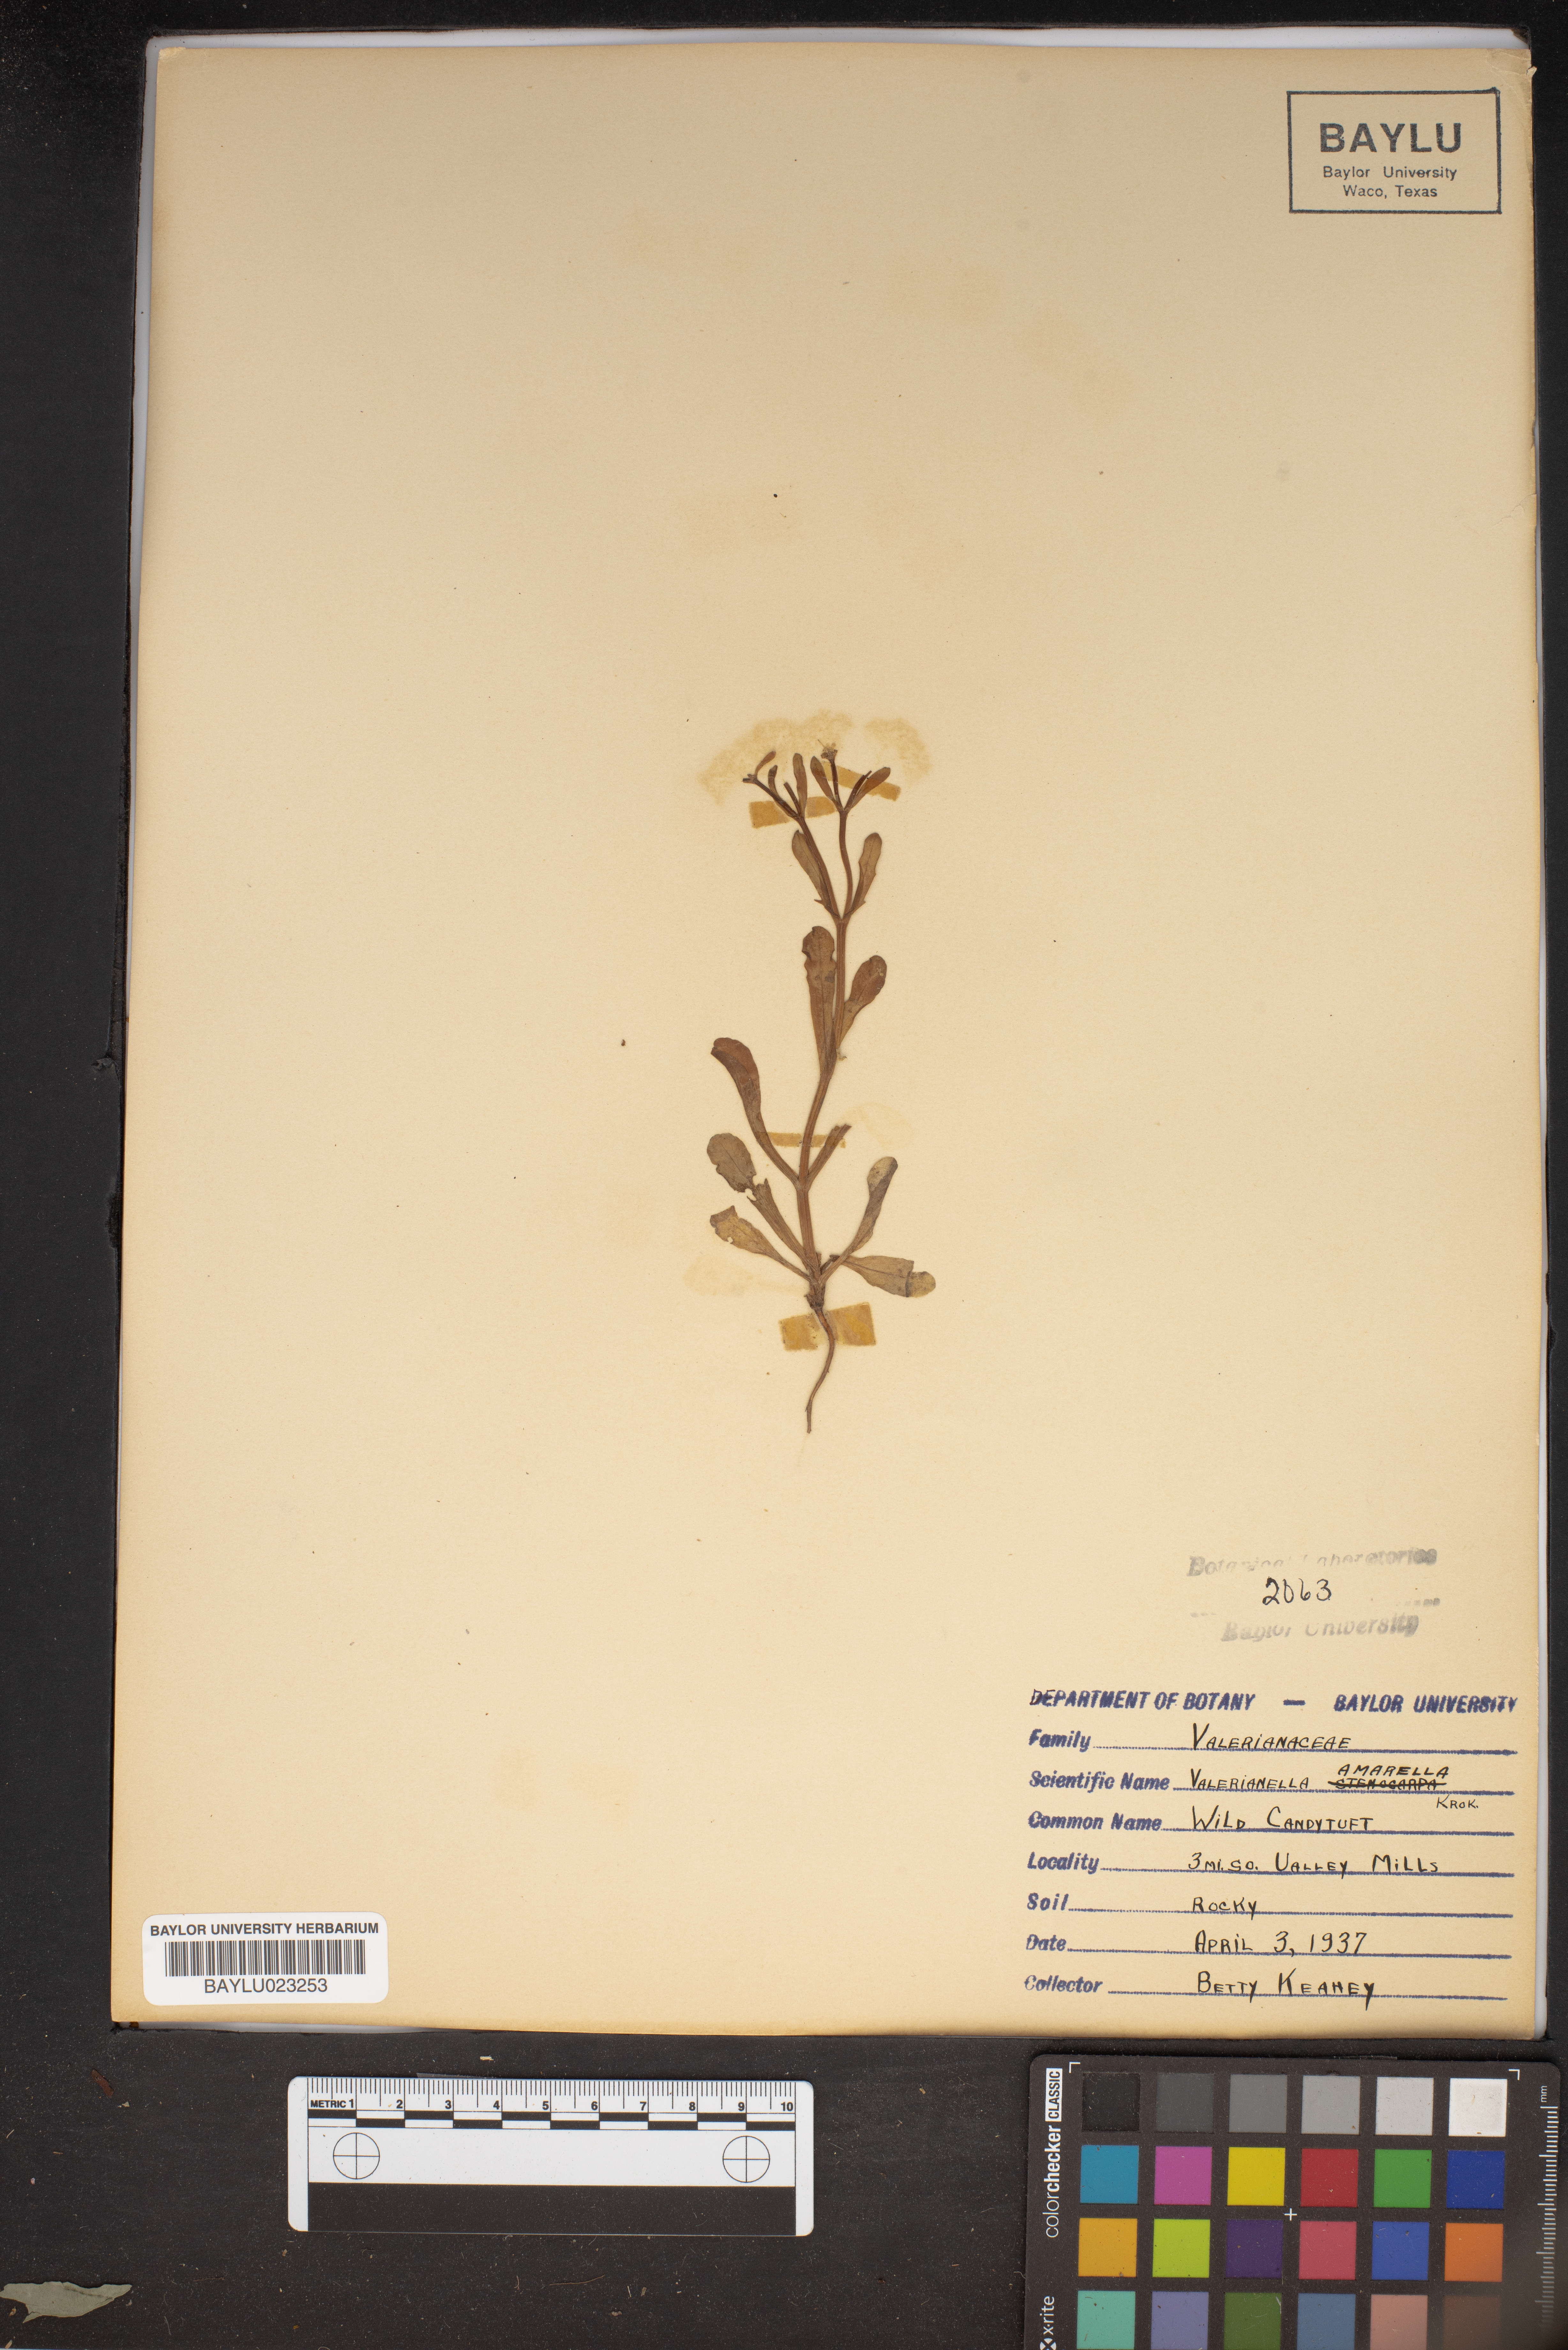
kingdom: Plantae
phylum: Tracheophyta
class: Magnoliopsida
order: Dipsacales
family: Caprifoliaceae
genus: Valerianella
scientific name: Valerianella amarella
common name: Hariy cornsalad
